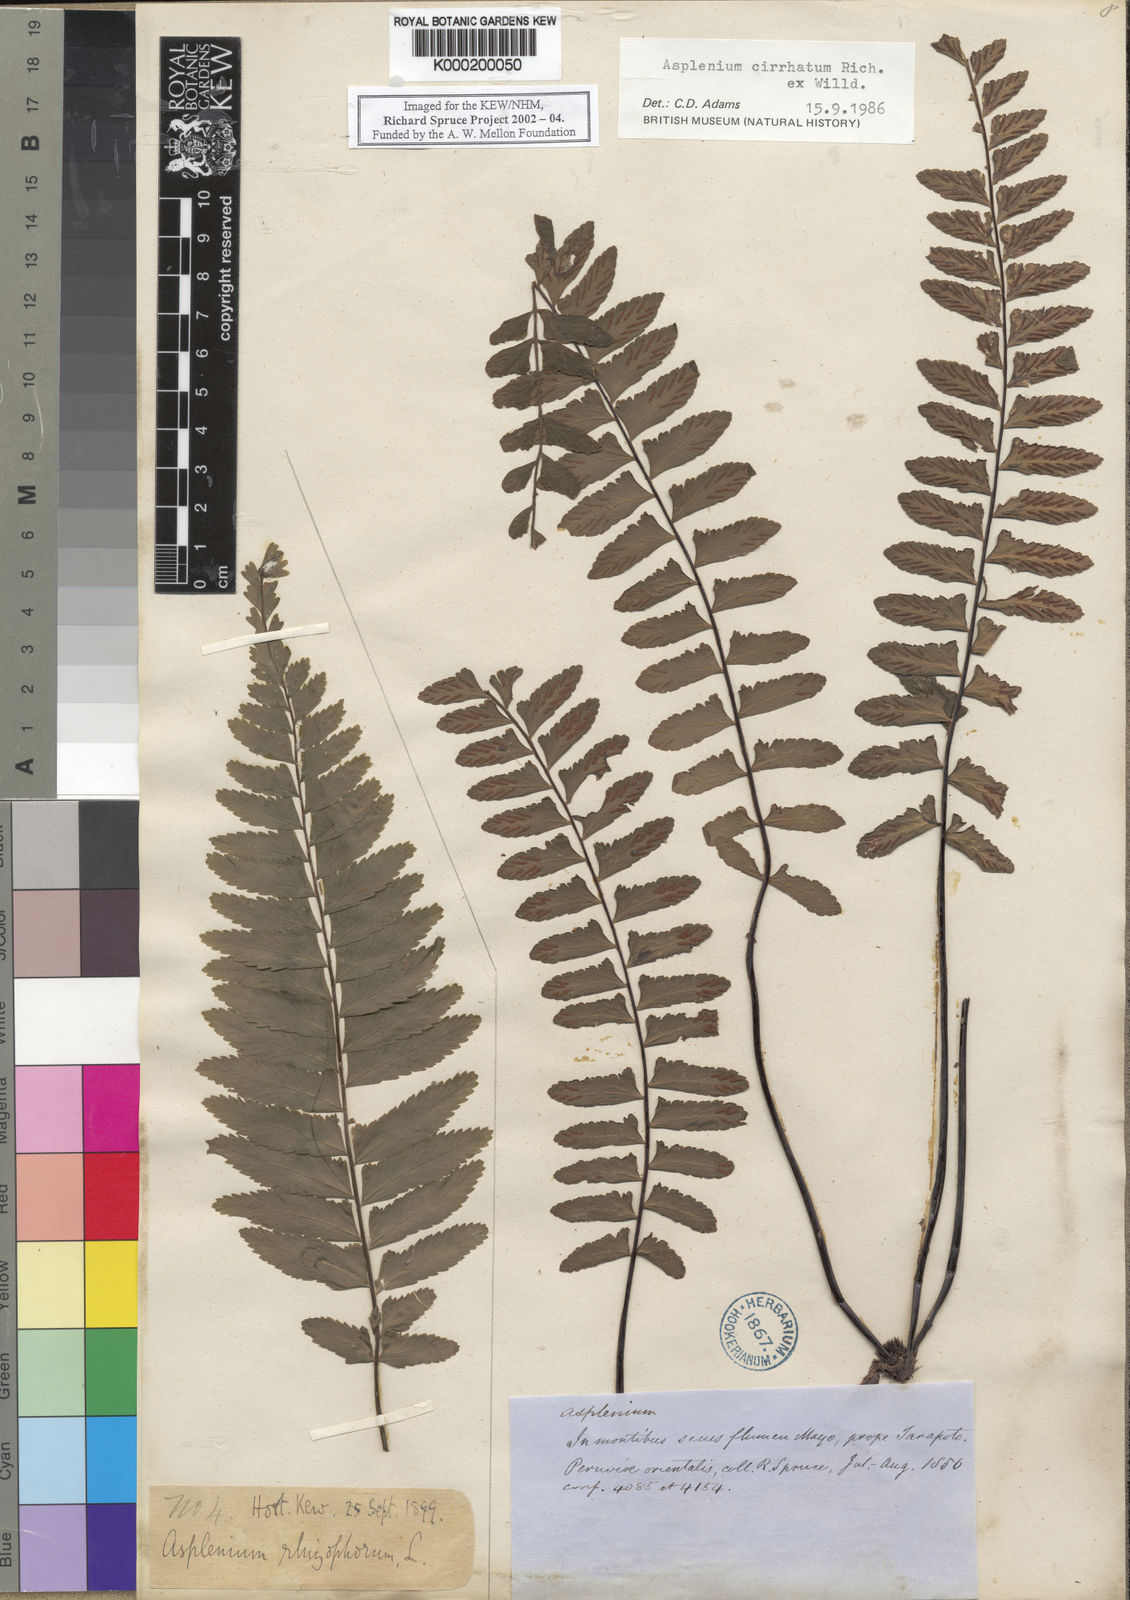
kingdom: Plantae
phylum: Tracheophyta
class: Polypodiopsida
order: Polypodiales
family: Aspleniaceae
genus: Asplenium
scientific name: Asplenium cirrhatum
